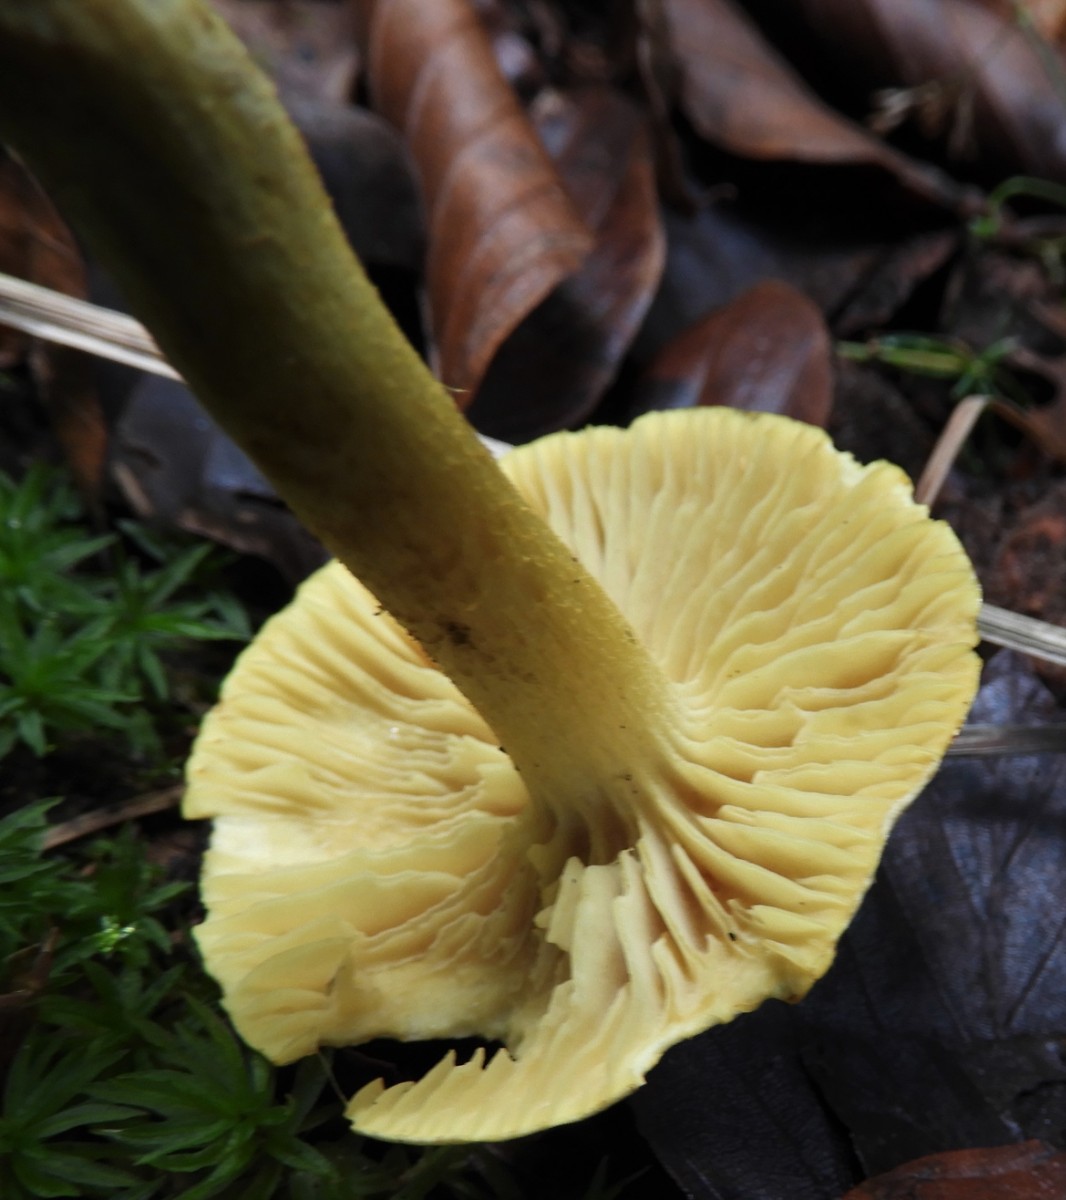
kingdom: Fungi
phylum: Basidiomycota
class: Agaricomycetes
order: Agaricales
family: Tricholomataceae
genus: Tricholoma
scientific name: Tricholoma sulphureum
